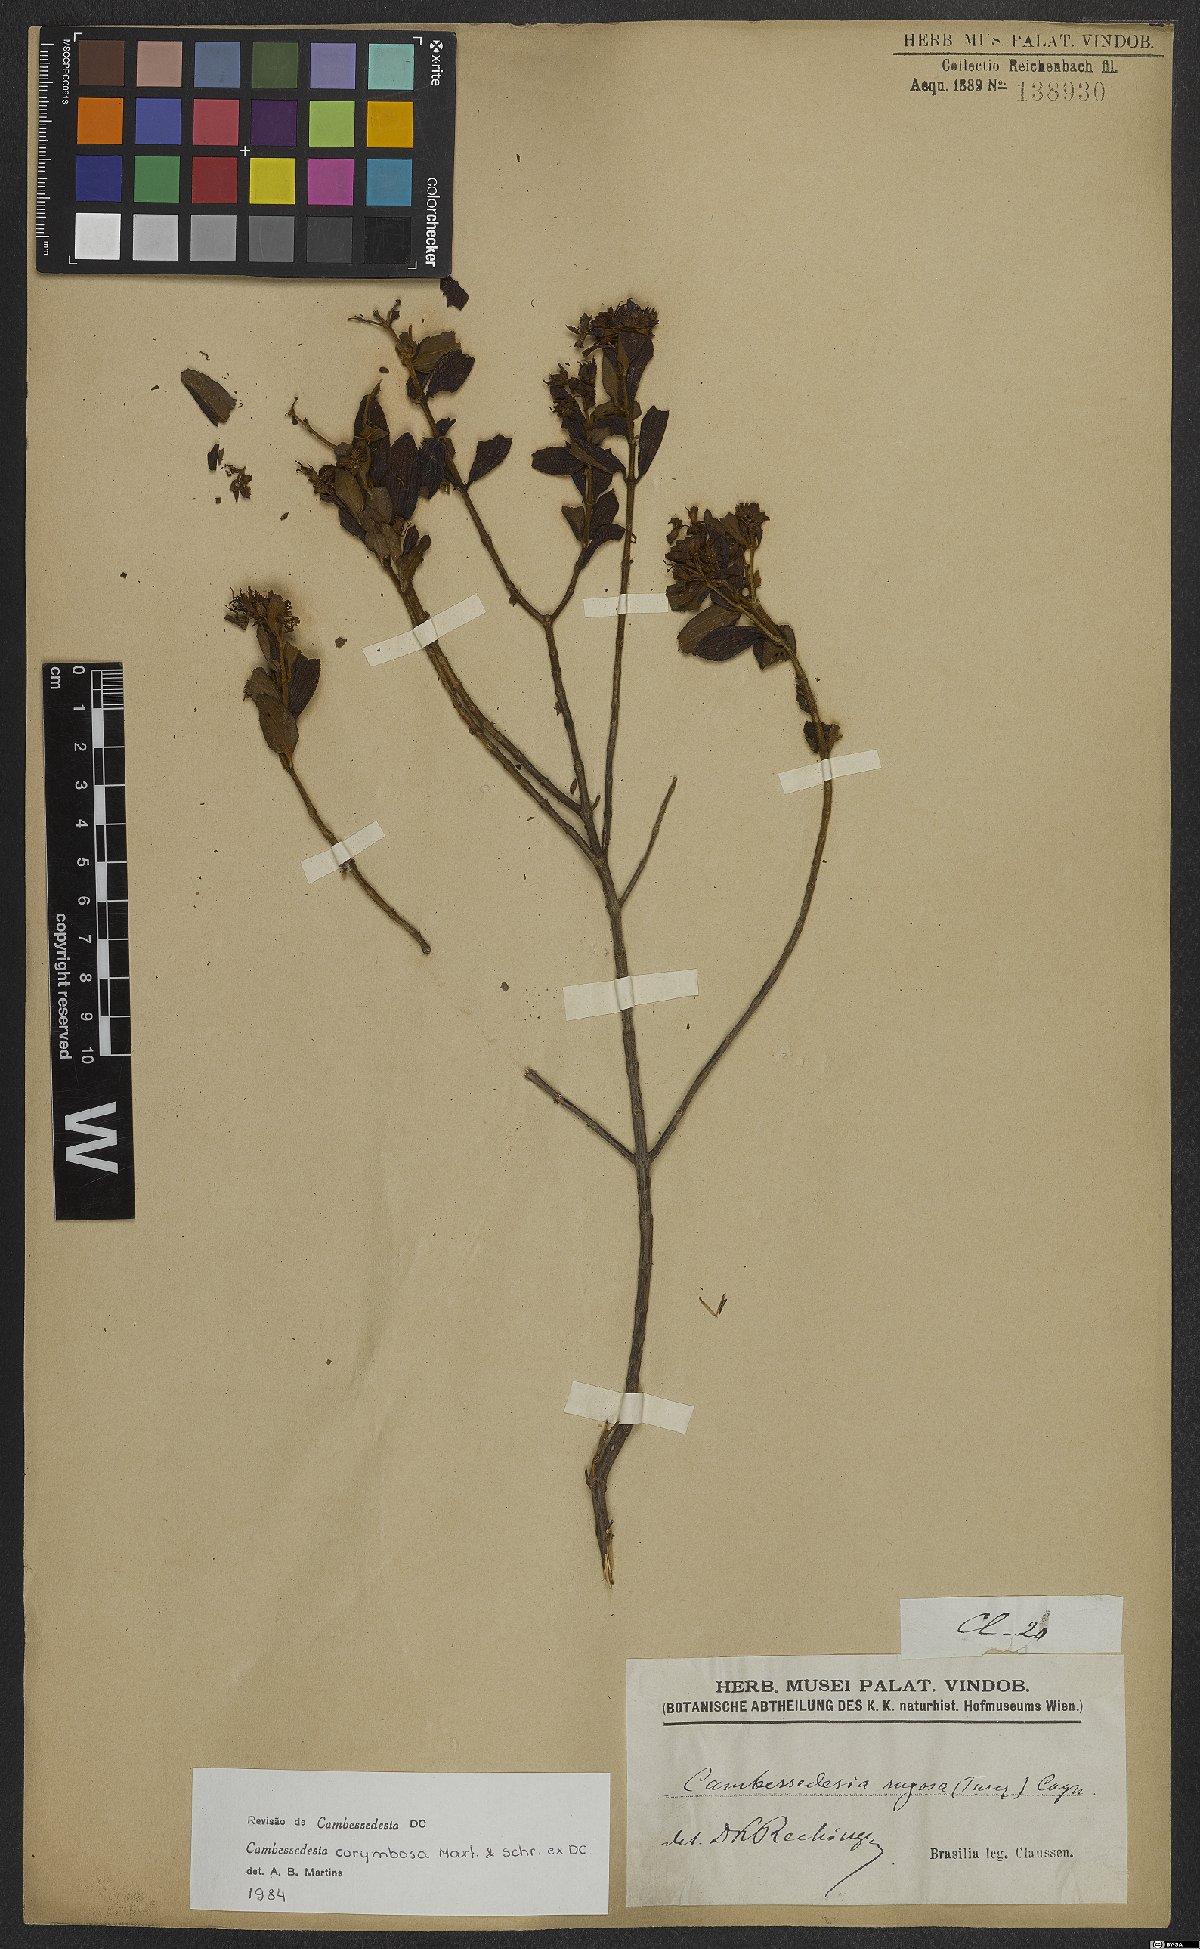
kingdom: Plantae
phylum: Tracheophyta
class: Magnoliopsida
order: Myrtales
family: Melastomataceae
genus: Cambessedesia
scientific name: Cambessedesia corymbosa
